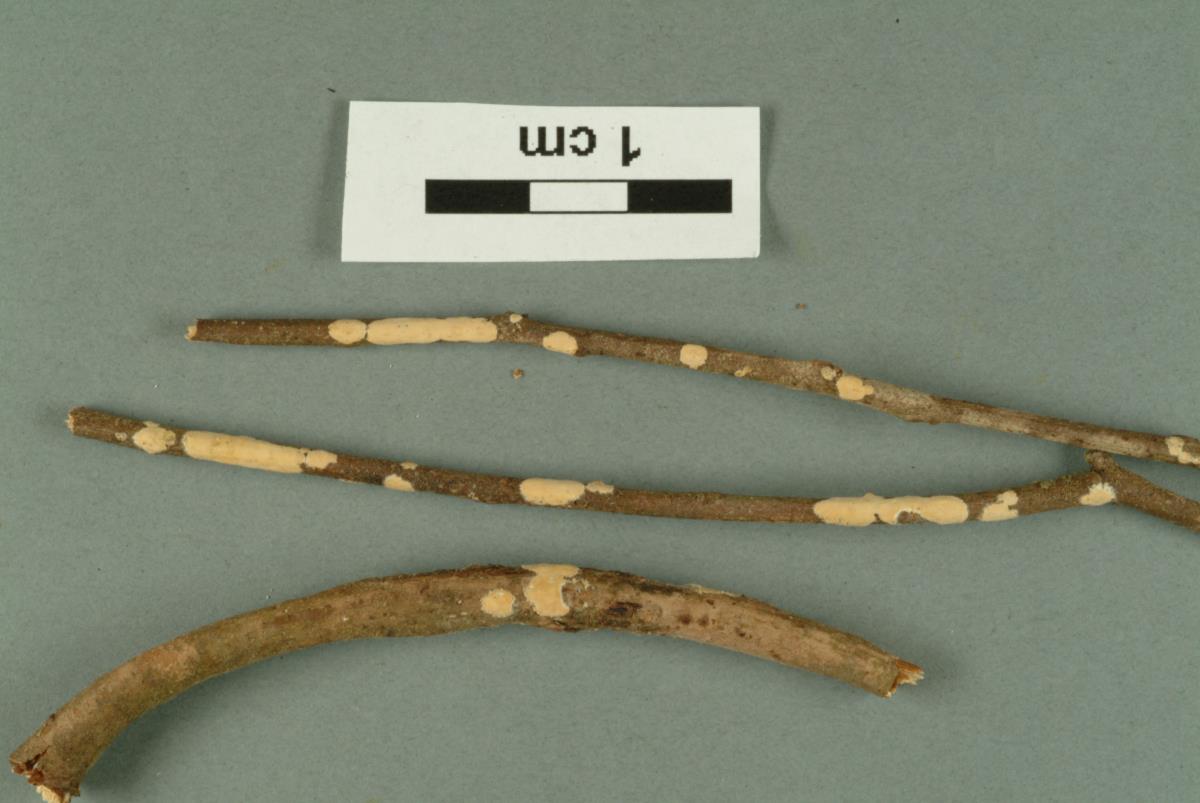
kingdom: Fungi
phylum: Basidiomycota
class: Agaricomycetes
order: Corticiales
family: Corticiaceae
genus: Lyomyces
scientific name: Lyomyces sambuci
